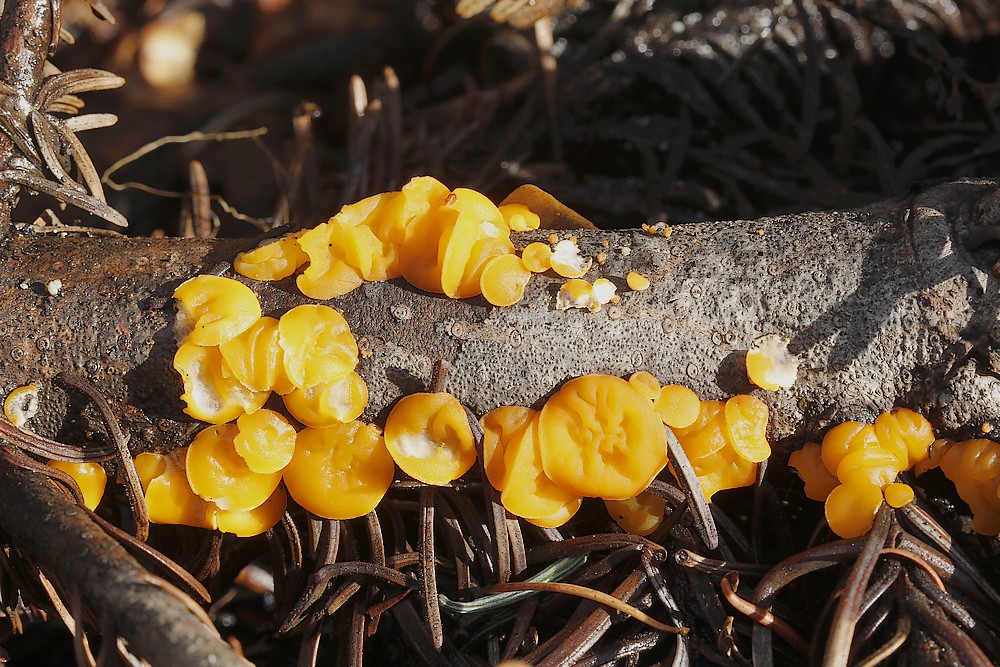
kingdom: Fungi
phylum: Ascomycota
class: Pezizomycetes
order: Pezizales
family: Sarcoscyphaceae
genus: Pithya
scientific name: Pithya vulgaris
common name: stor dukatbæger
